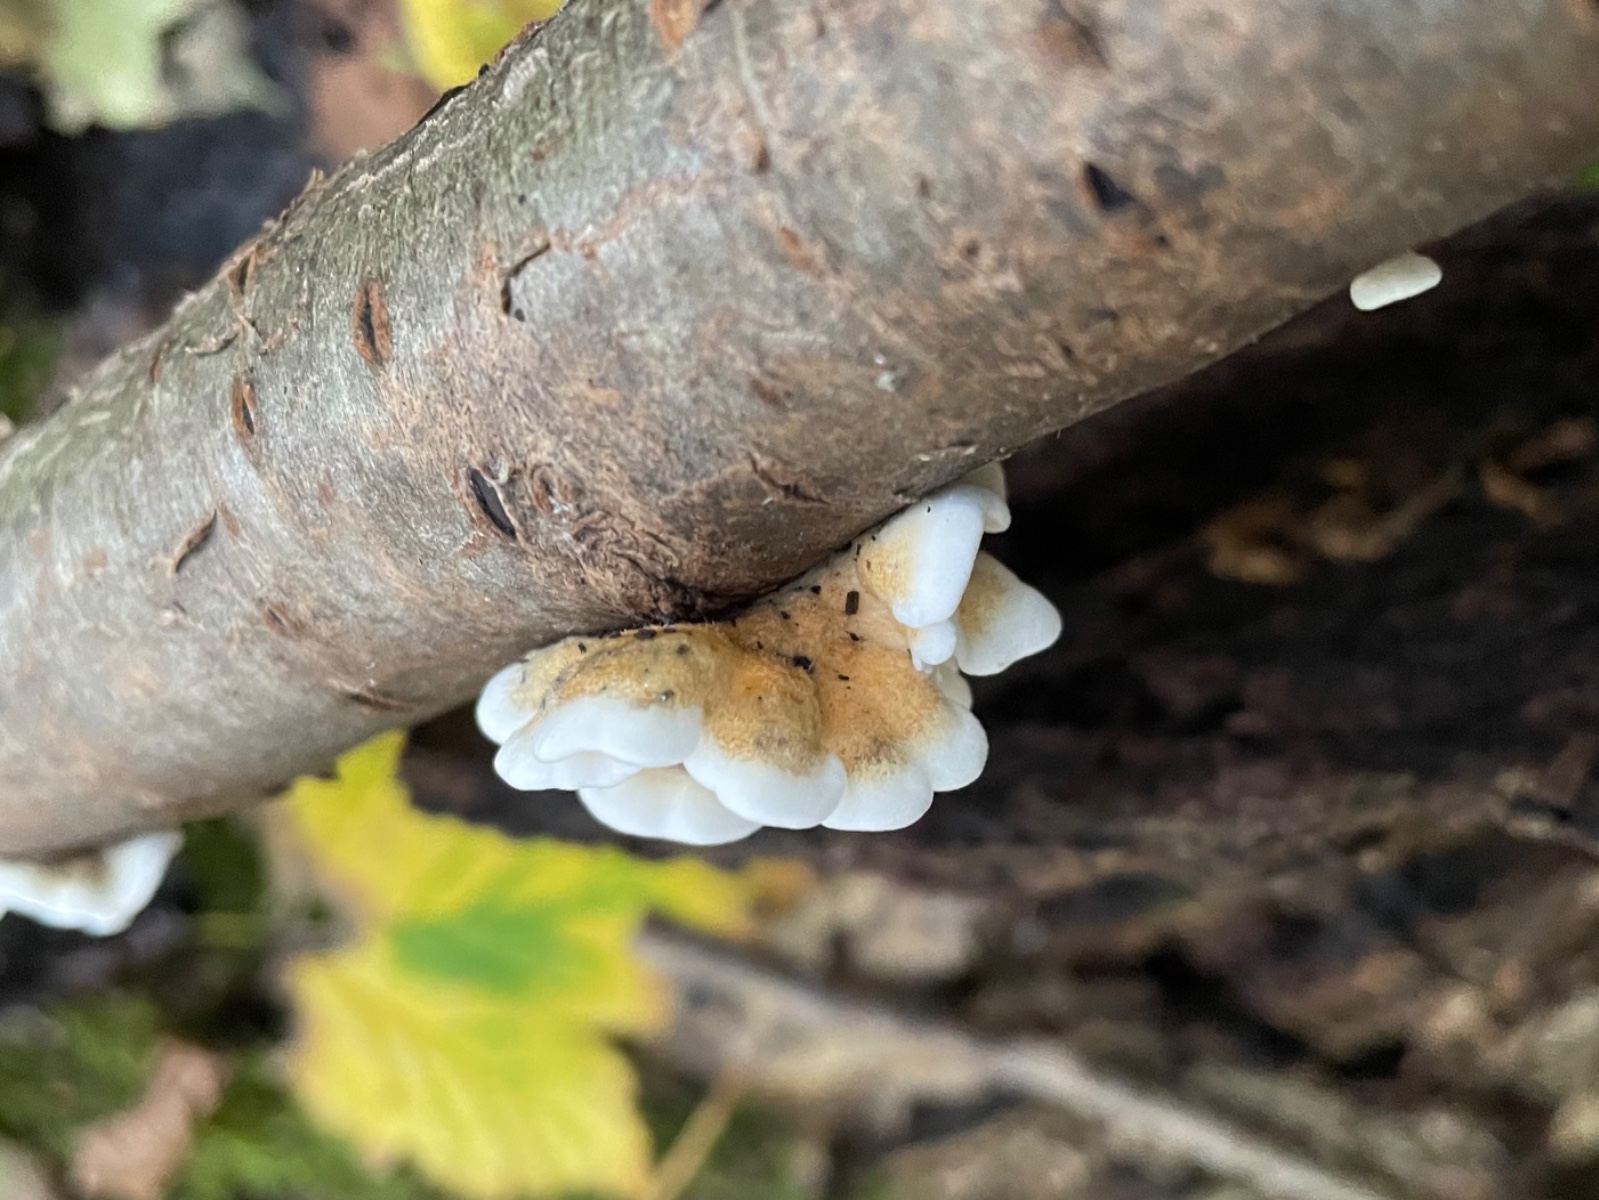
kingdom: Fungi
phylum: Basidiomycota
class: Agaricomycetes
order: Amylocorticiales
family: Amylocorticiaceae
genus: Plicaturopsis
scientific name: Plicaturopsis crispa
